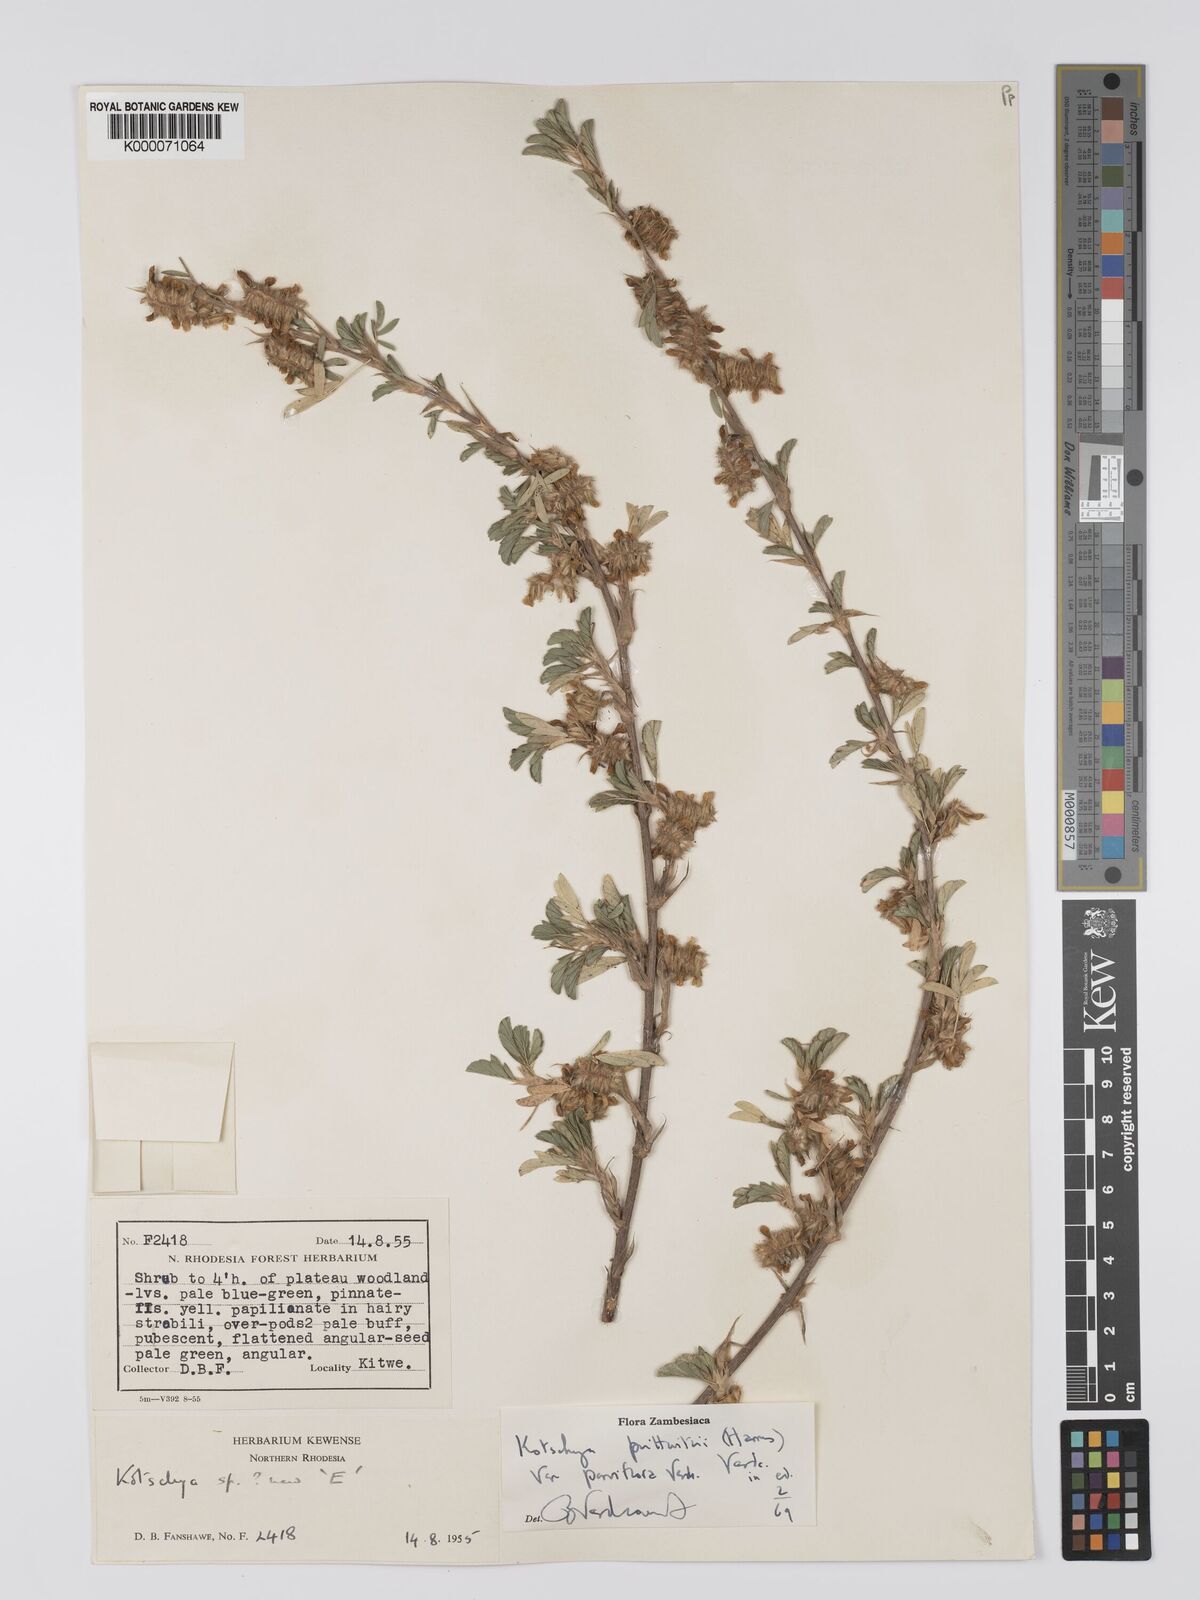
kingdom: Plantae
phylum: Tracheophyta
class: Magnoliopsida
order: Fabales
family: Fabaceae
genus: Kotschya
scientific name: Kotschya prittwitzii
